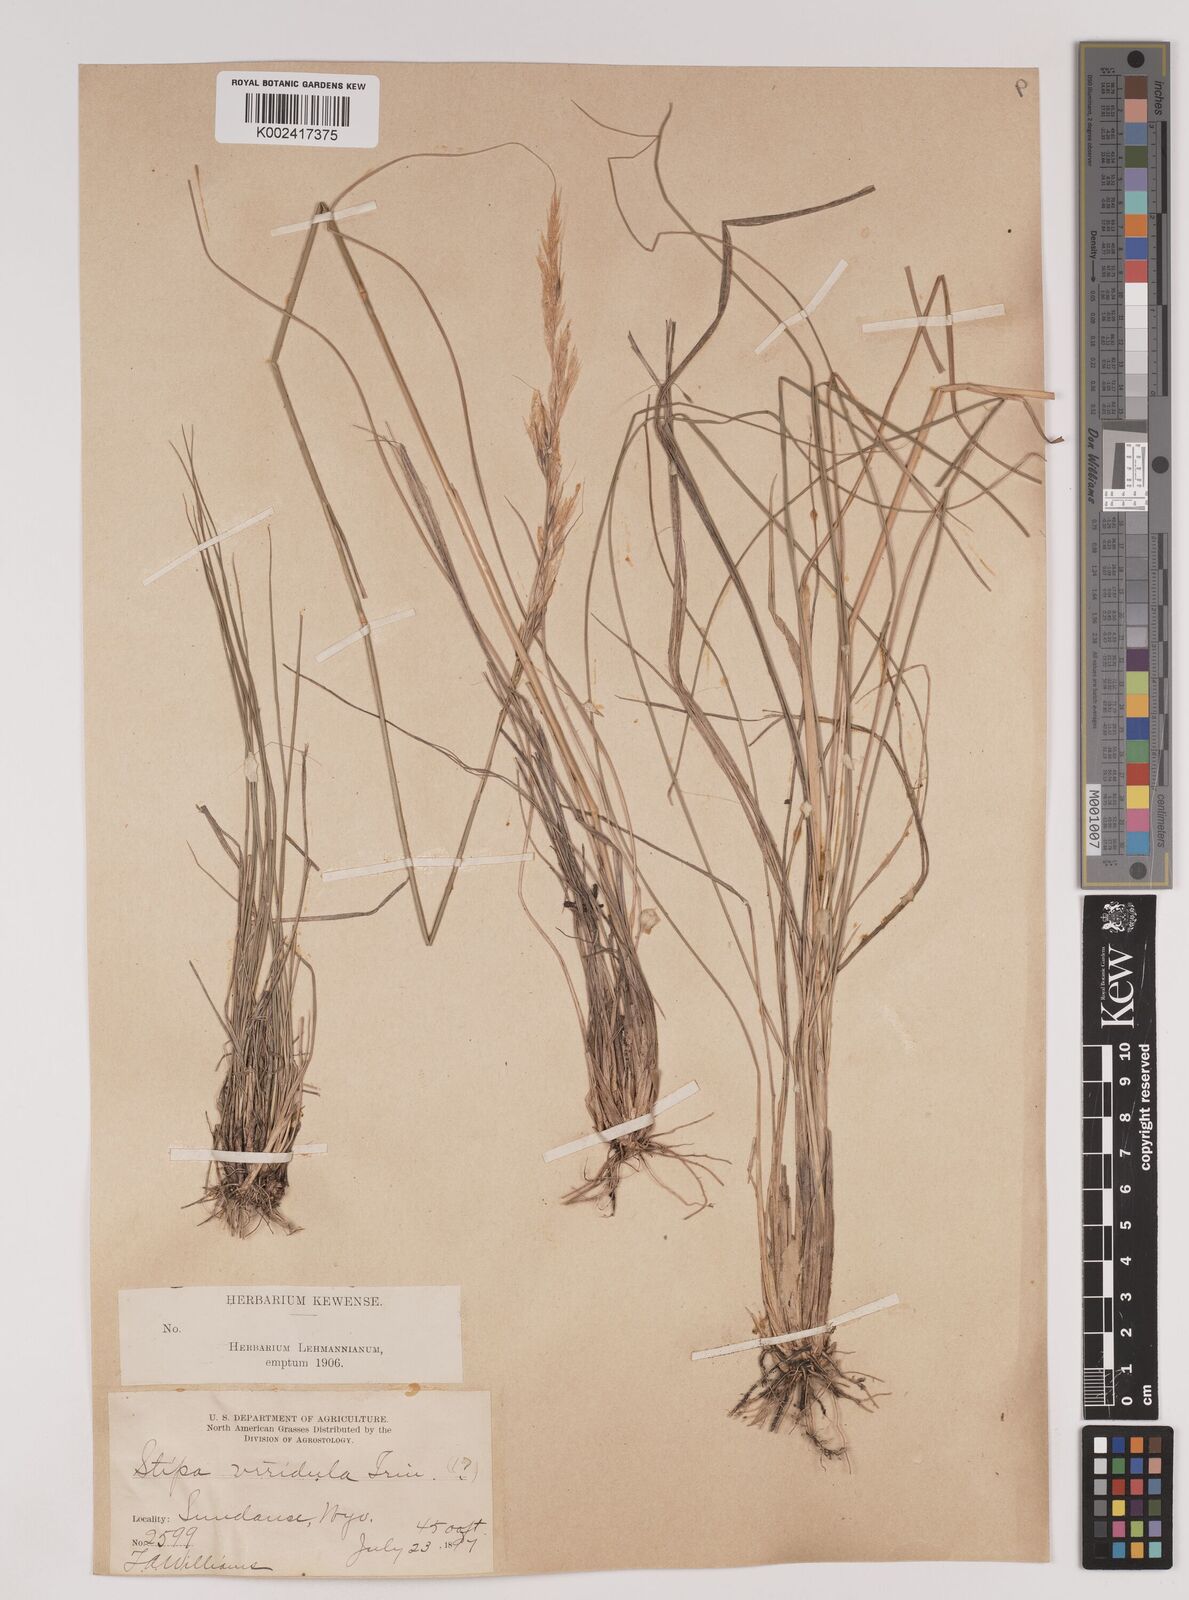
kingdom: Plantae
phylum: Tracheophyta
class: Liliopsida
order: Poales
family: Poaceae
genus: Nassella
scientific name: Nassella viridula
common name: Green needlegrass
